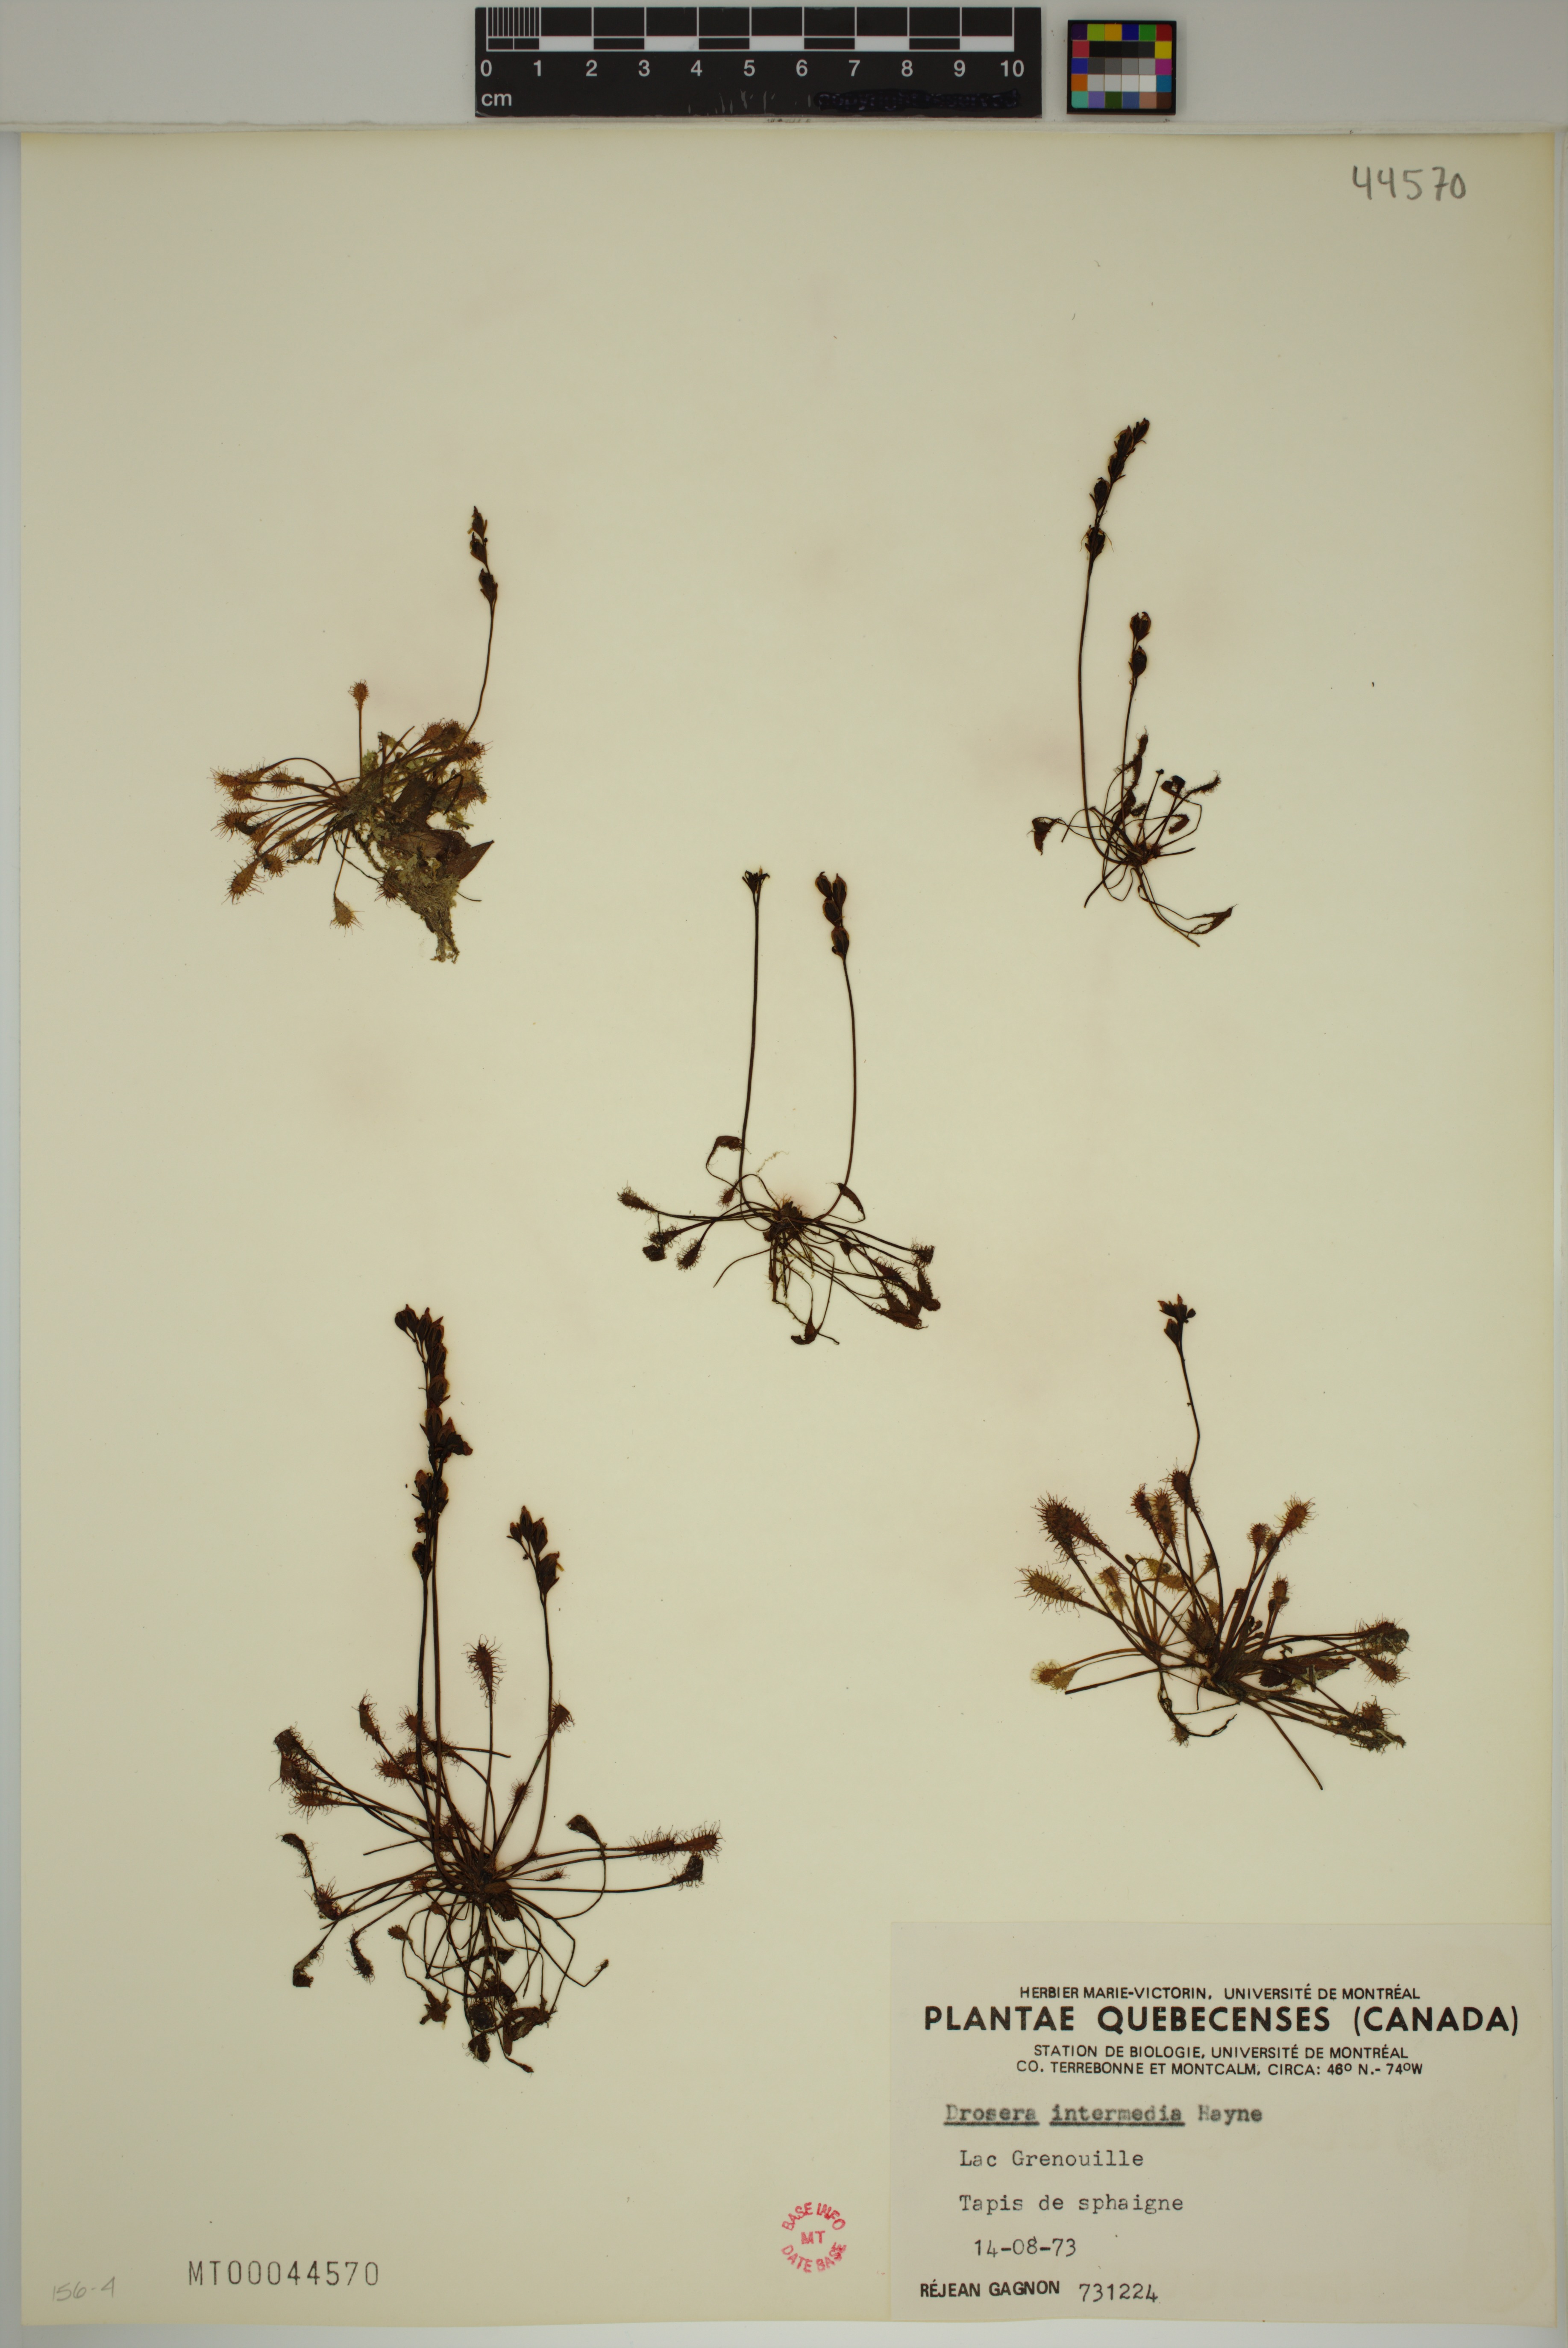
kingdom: Plantae
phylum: Tracheophyta
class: Magnoliopsida
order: Caryophyllales
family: Droseraceae
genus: Drosera
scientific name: Drosera intermedia
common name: Oblong-leaved sundew
